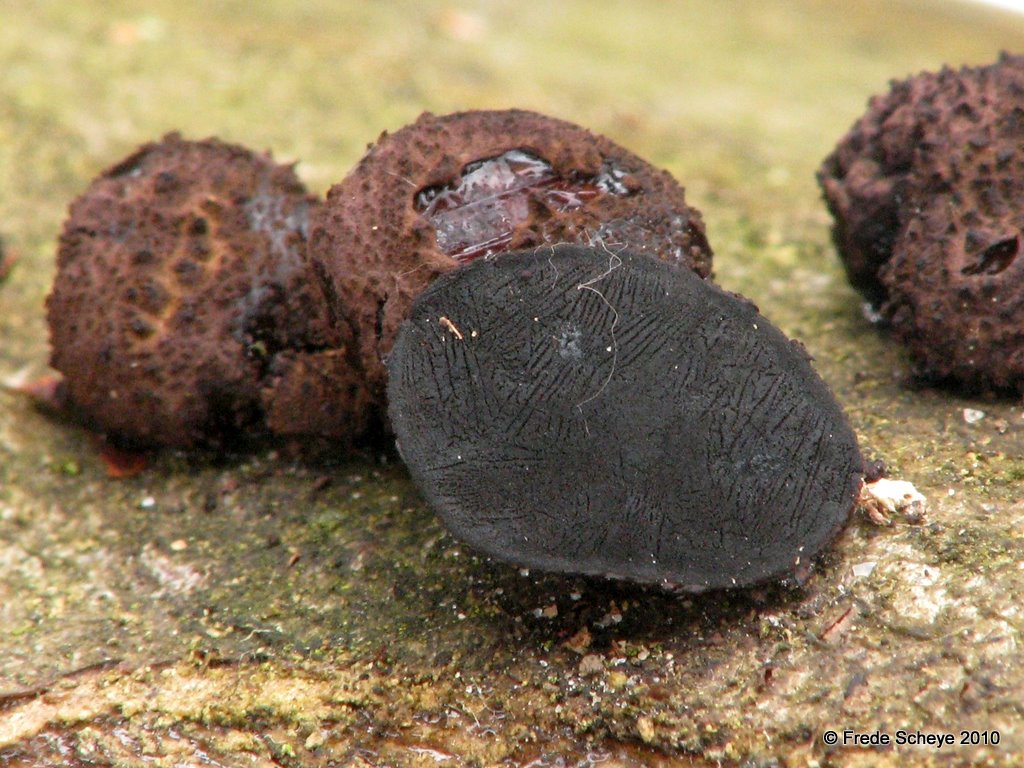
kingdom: Fungi
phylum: Ascomycota
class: Leotiomycetes
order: Phacidiales
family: Phacidiaceae
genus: Bulgaria
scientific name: Bulgaria inquinans
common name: afsmittende topsvamp
